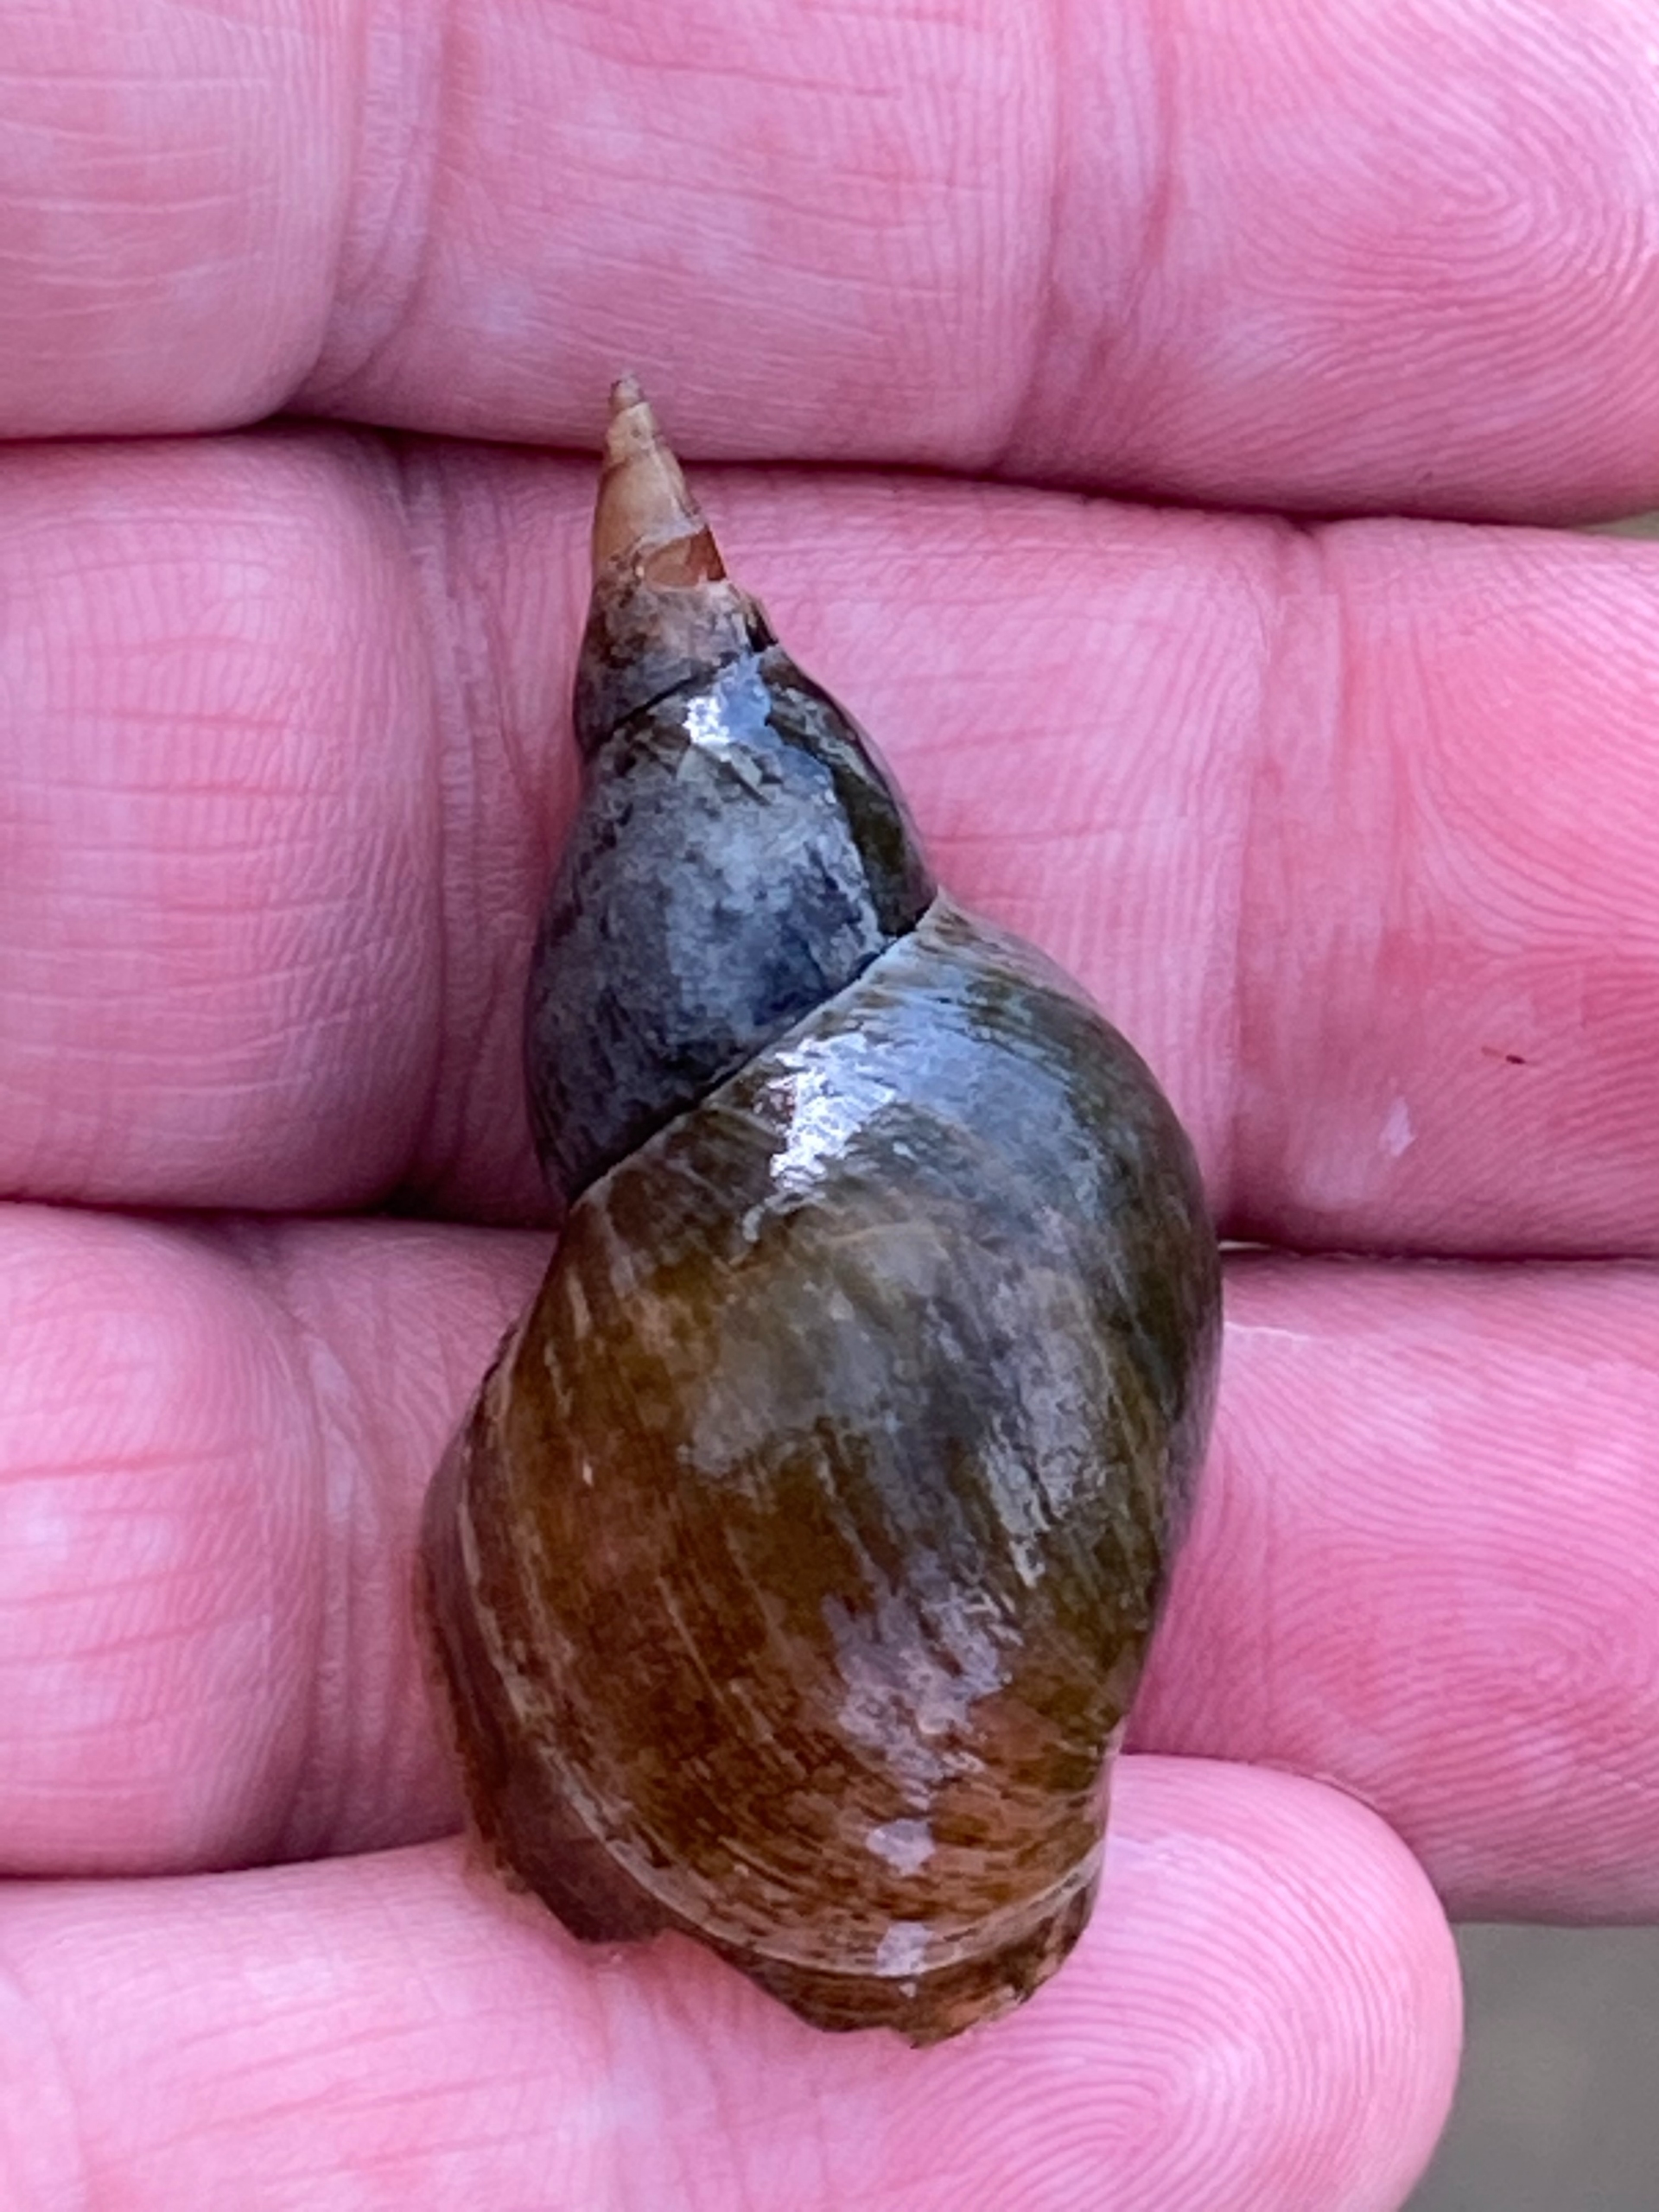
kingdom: Animalia
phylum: Mollusca
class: Gastropoda
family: Lymnaeidae
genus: Lymnaea
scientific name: Lymnaea stagnalis
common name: Stor mosesnegl
